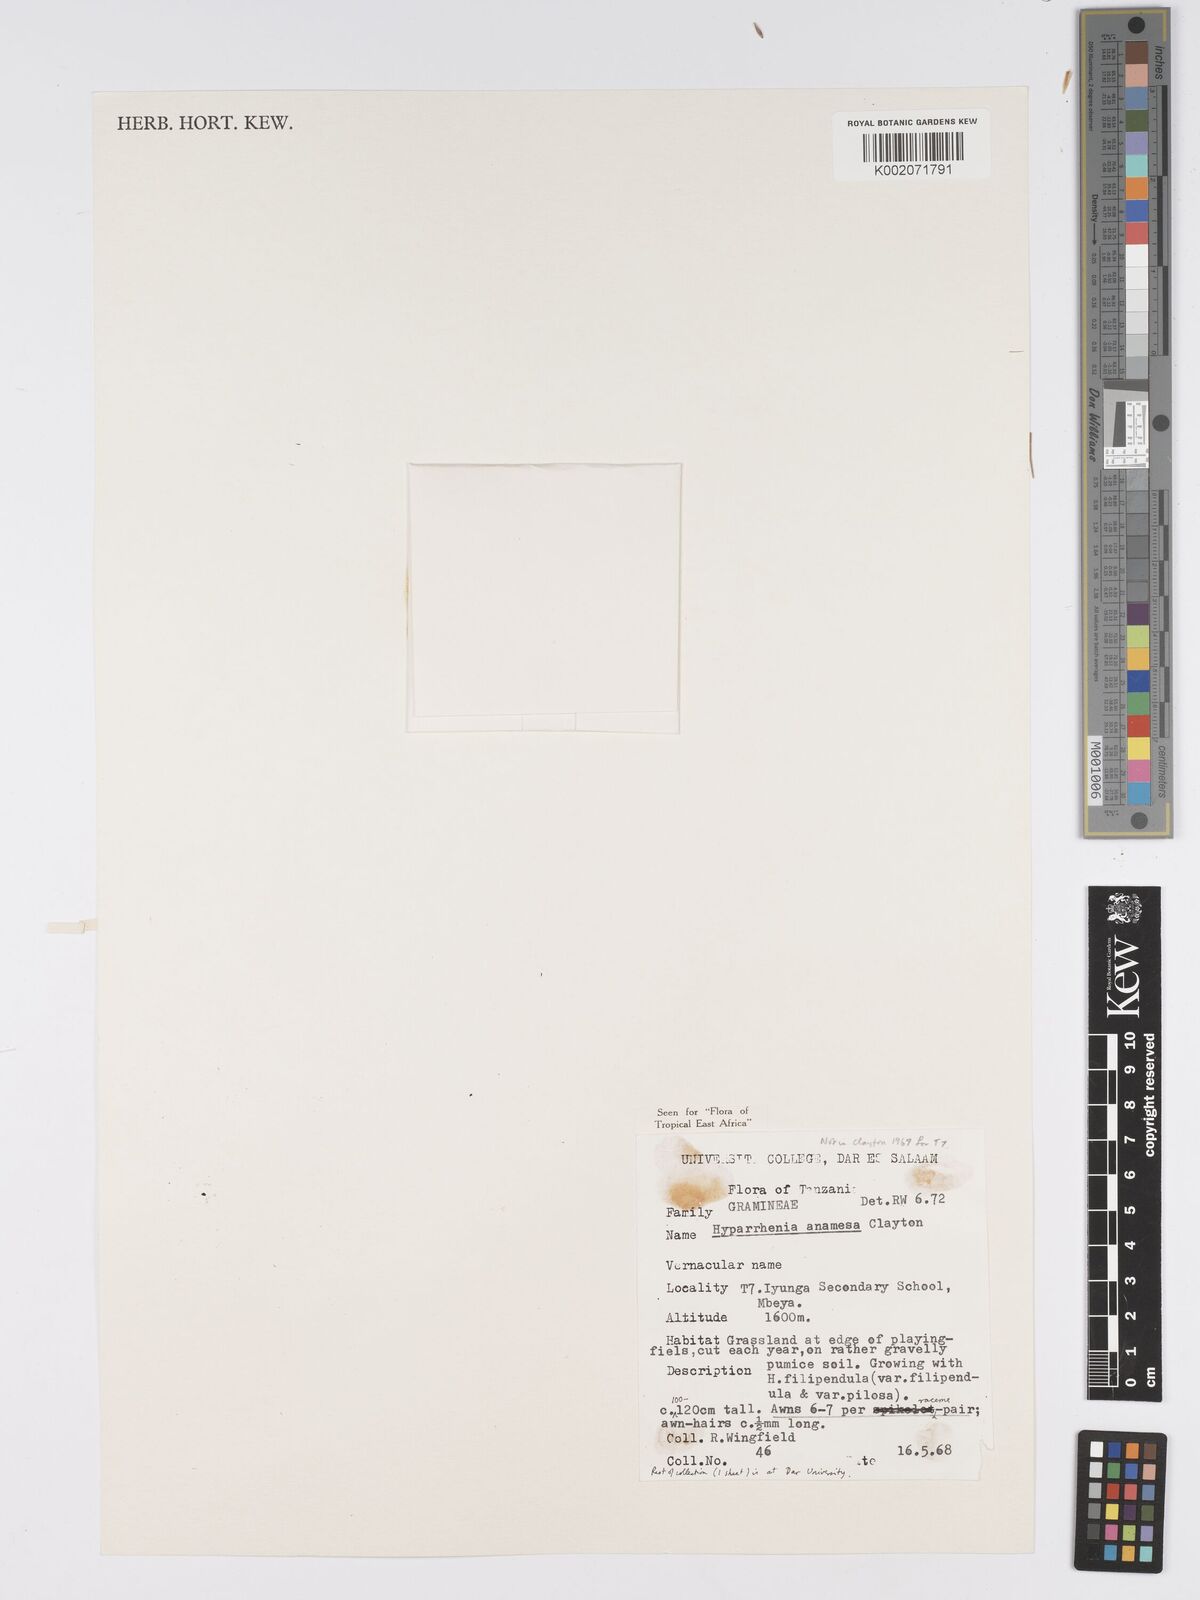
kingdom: Plantae
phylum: Tracheophyta
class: Liliopsida
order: Poales
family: Poaceae
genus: Hyparrhenia
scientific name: Hyparrhenia anamesa
